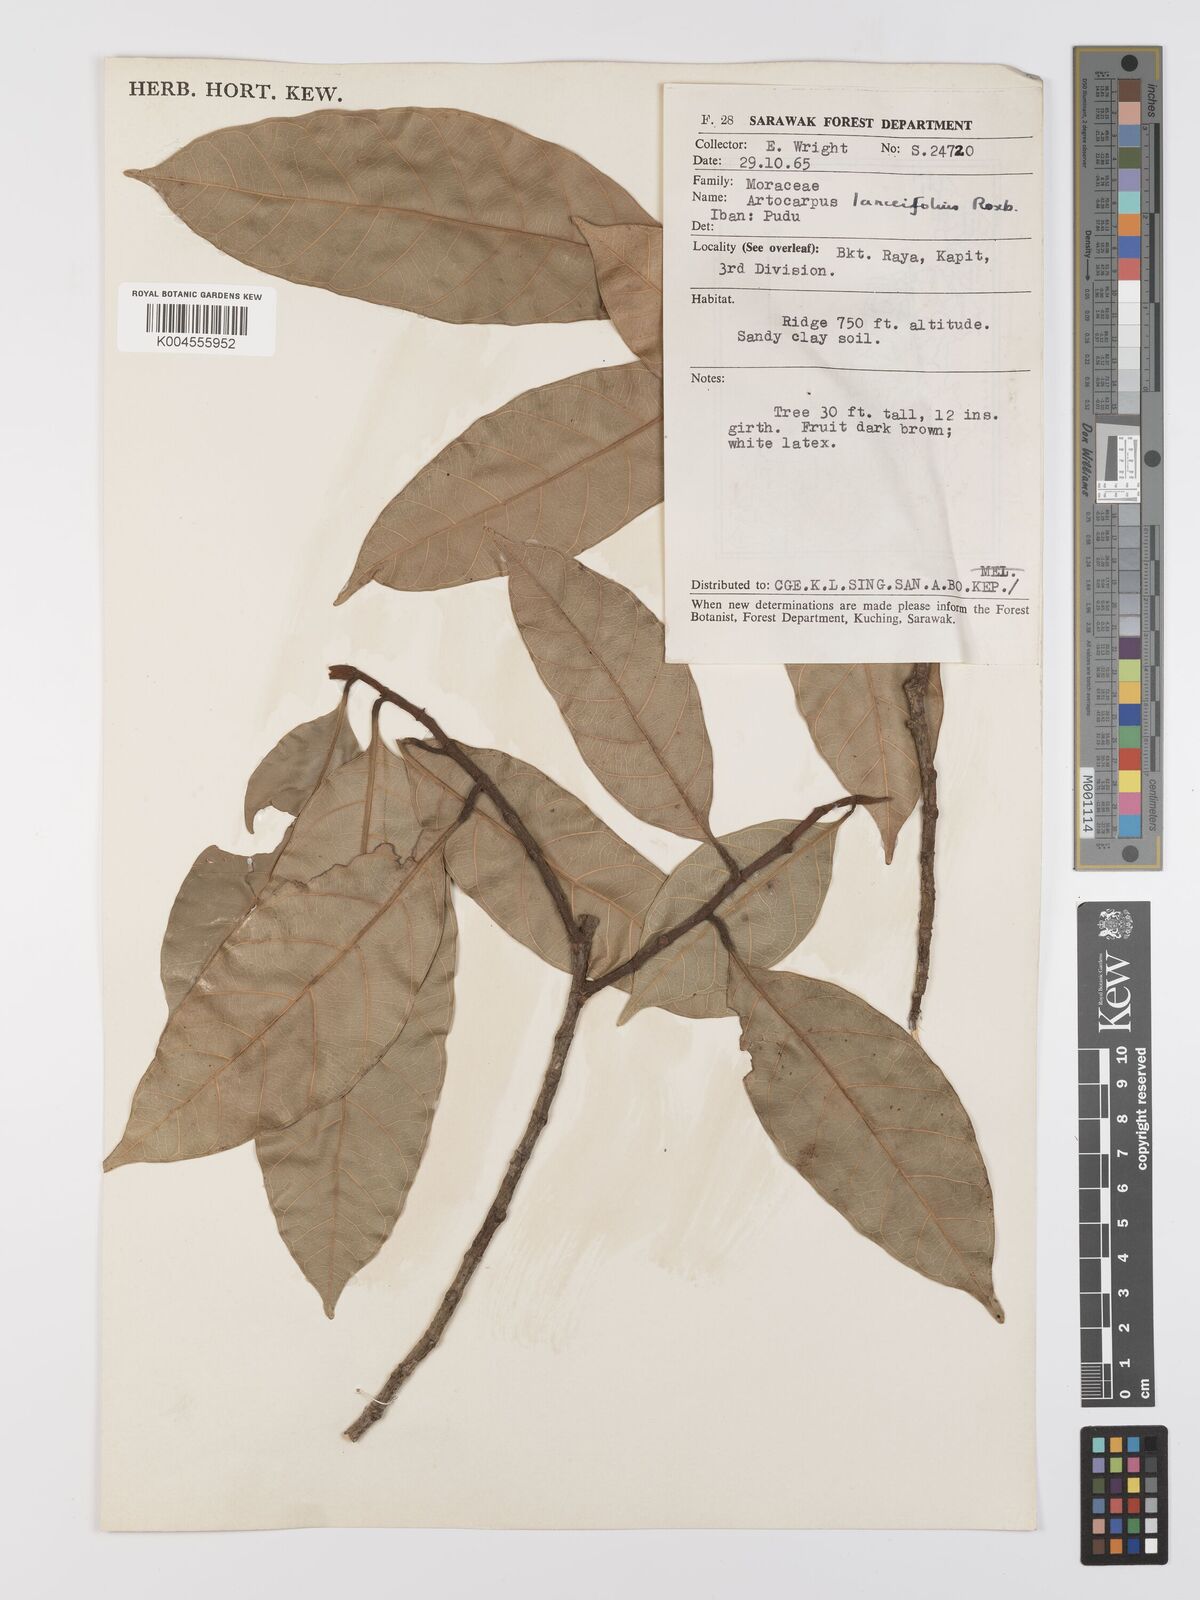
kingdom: Plantae
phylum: Tracheophyta
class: Magnoliopsida
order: Rosales
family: Moraceae
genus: Artocarpus
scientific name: Artocarpus lanceifolius
